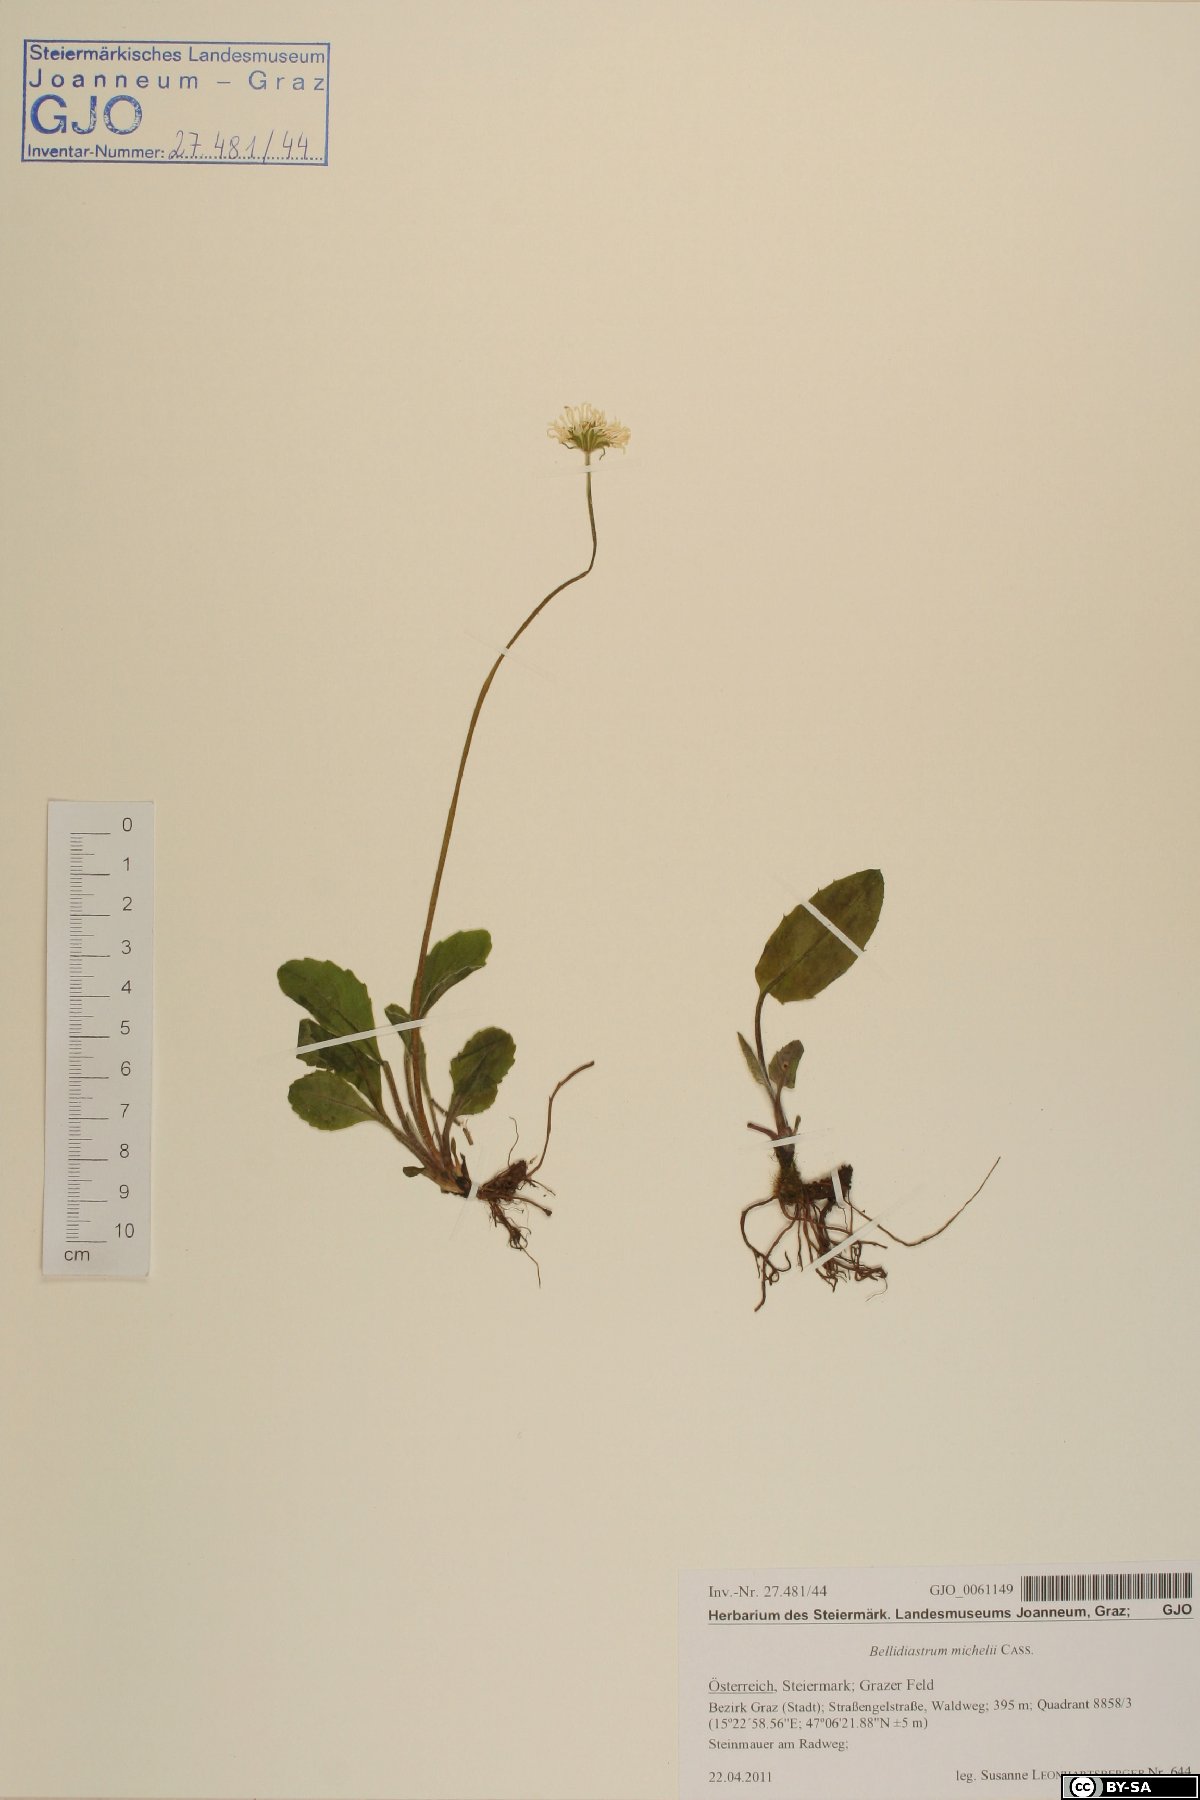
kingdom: Plantae
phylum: Tracheophyta
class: Magnoliopsida
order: Asterales
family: Asteraceae
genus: Bellidiastrum
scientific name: Bellidiastrum michelii
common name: Daisy-star aster
